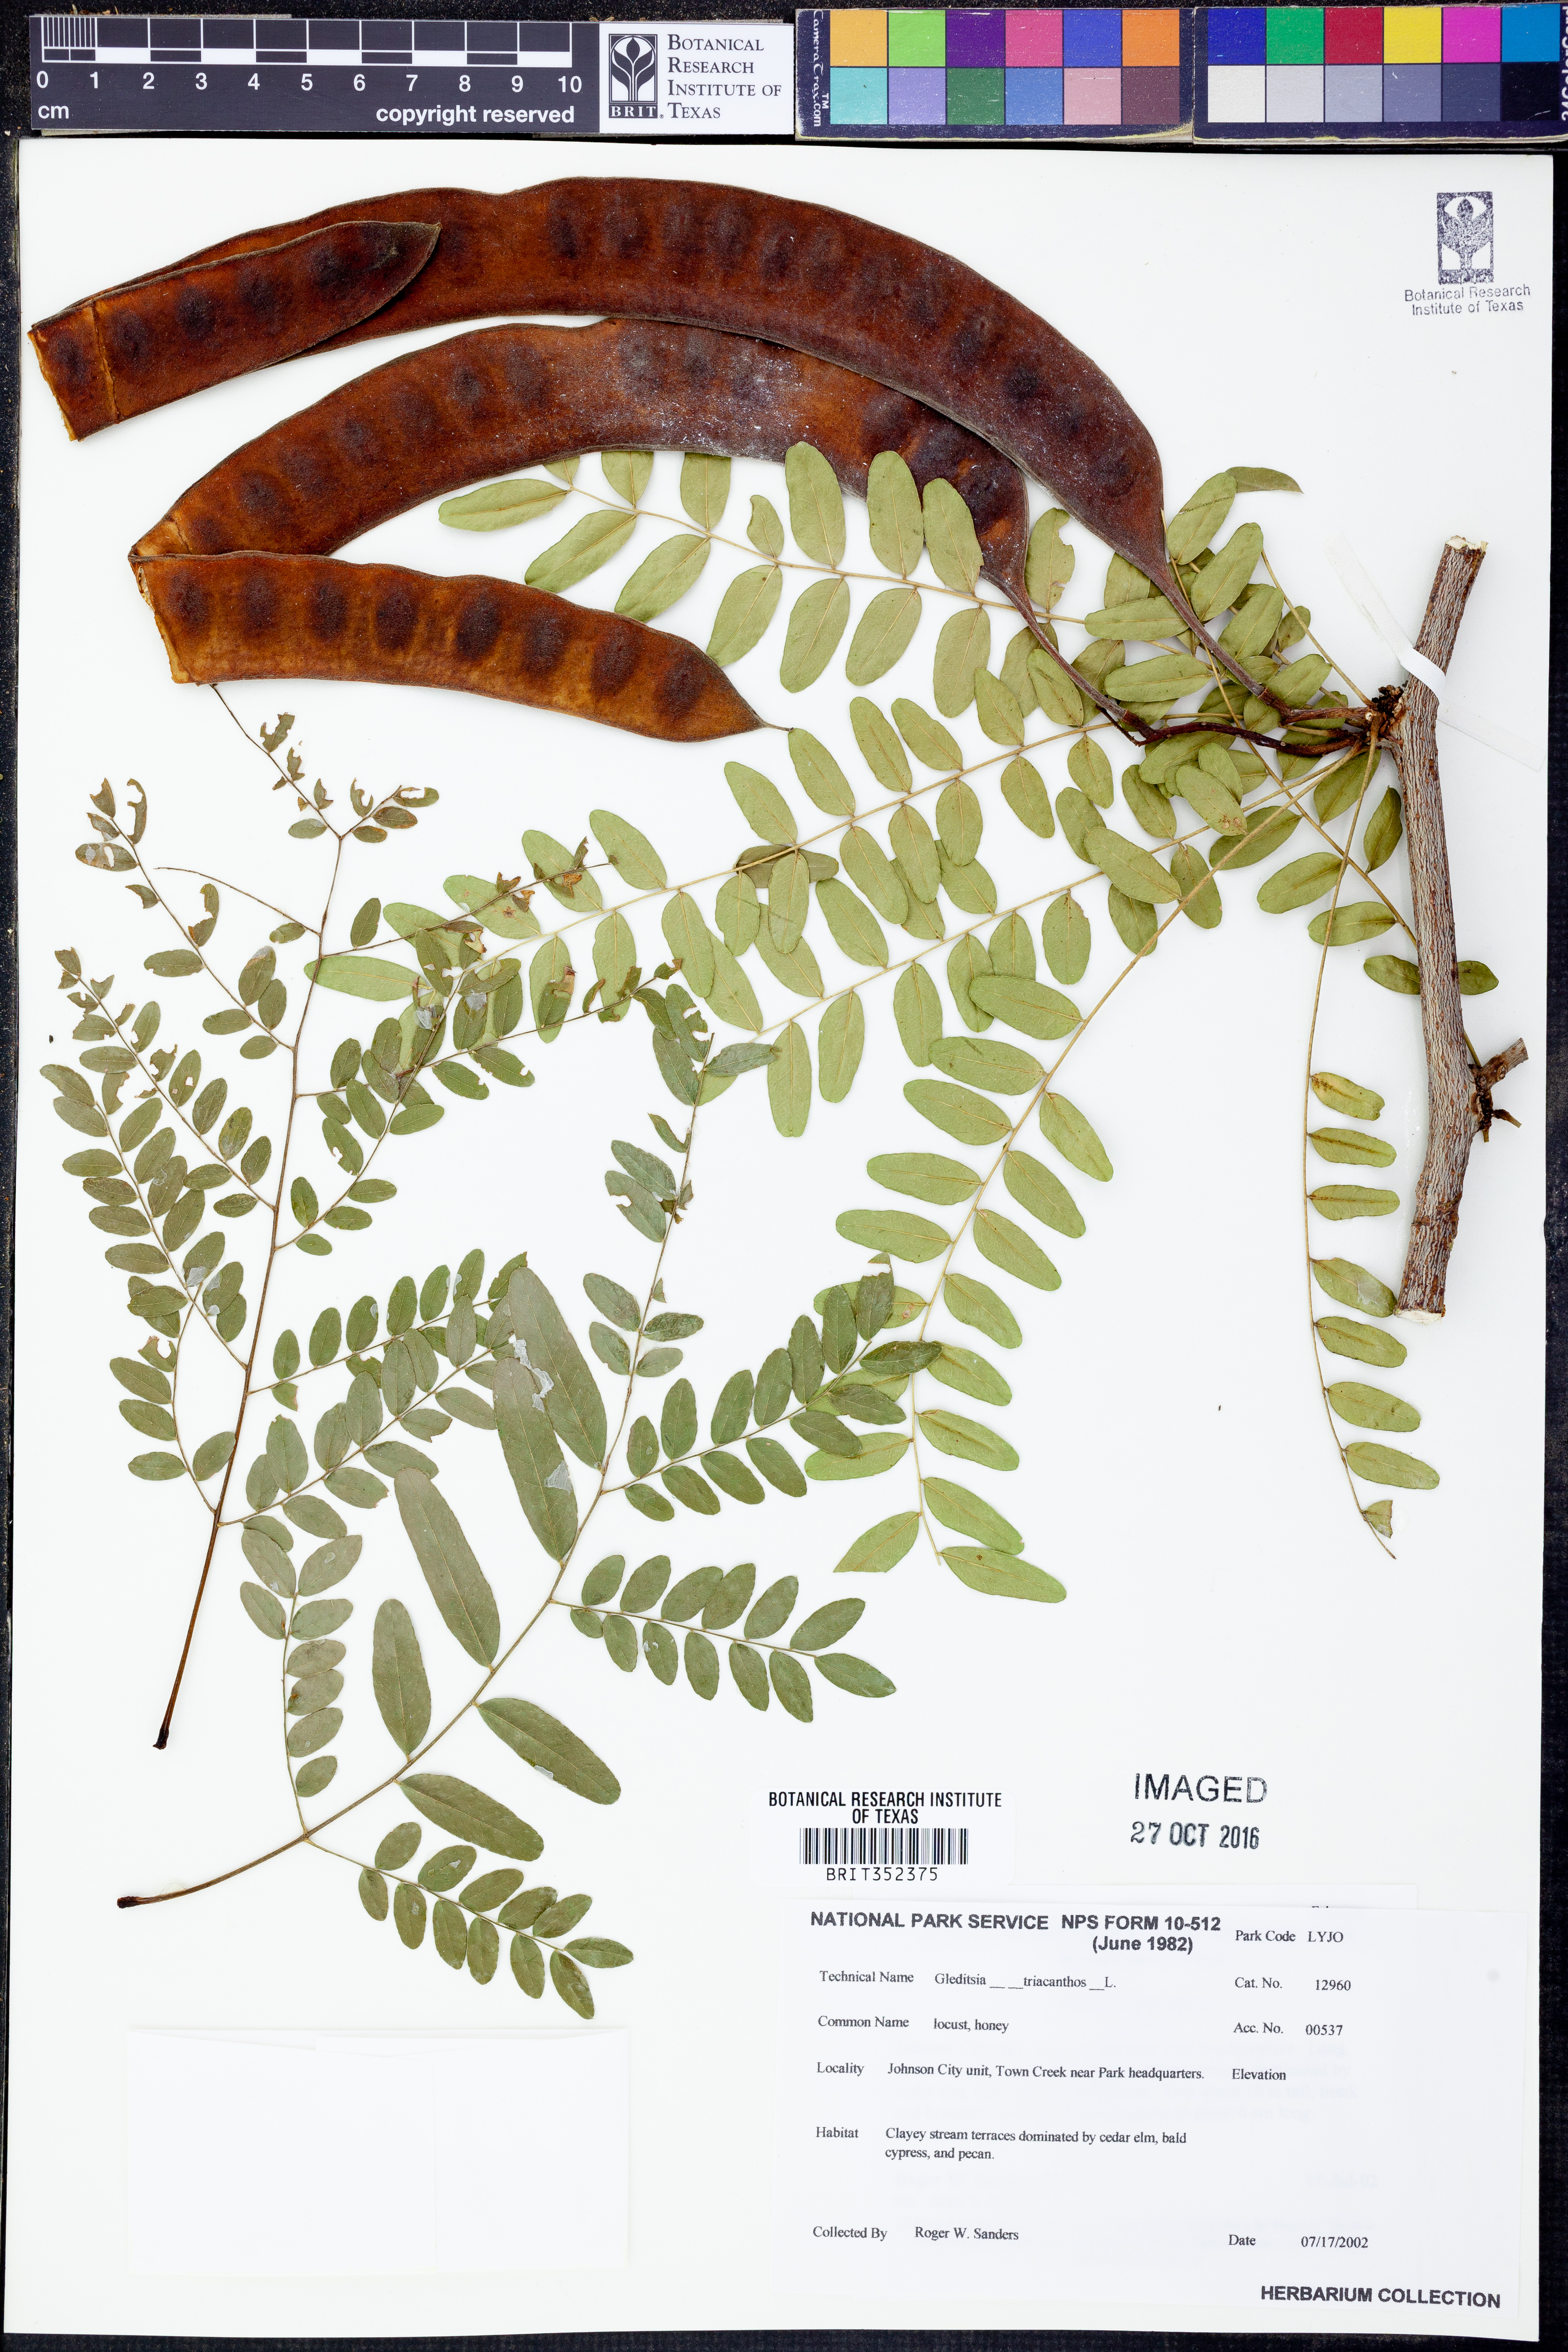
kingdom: Plantae
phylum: Tracheophyta
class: Magnoliopsida
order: Fabales
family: Fabaceae
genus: Gleditsia
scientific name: Gleditsia triacanthos
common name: Common honeylocust
